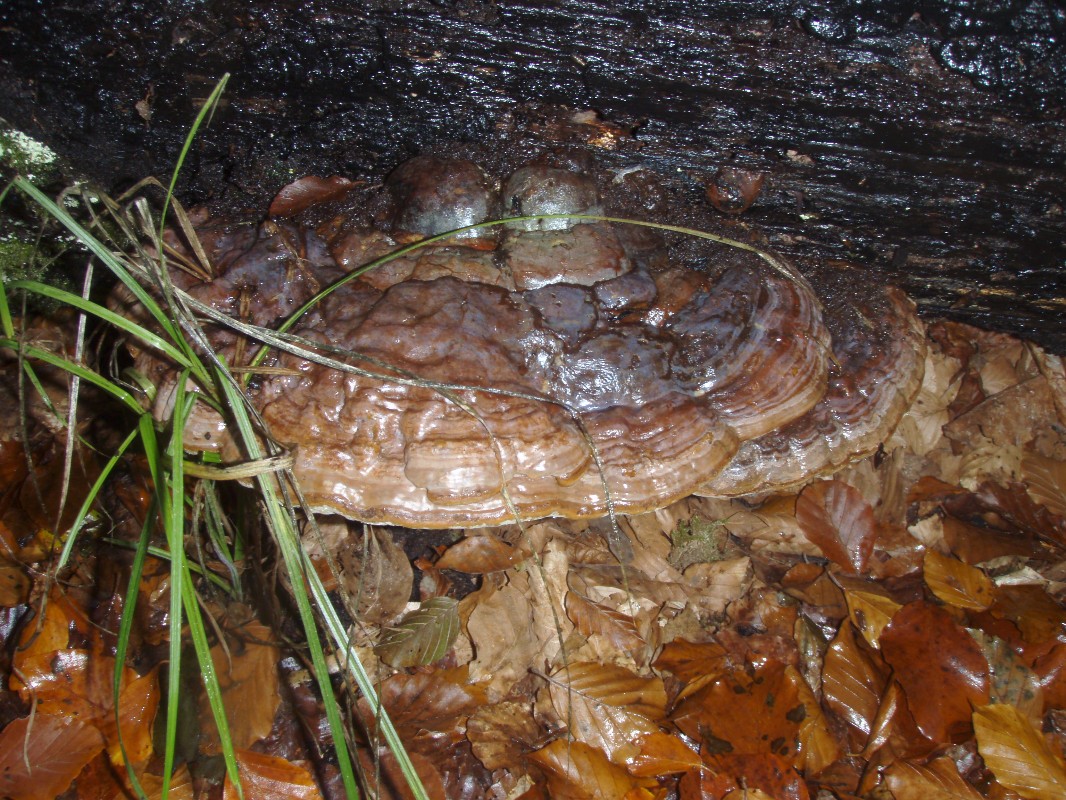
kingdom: Fungi
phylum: Basidiomycota
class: Agaricomycetes
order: Polyporales
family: Polyporaceae
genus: Ganoderma
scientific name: Ganoderma pfeifferi
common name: kobberrød lakporesvamp
